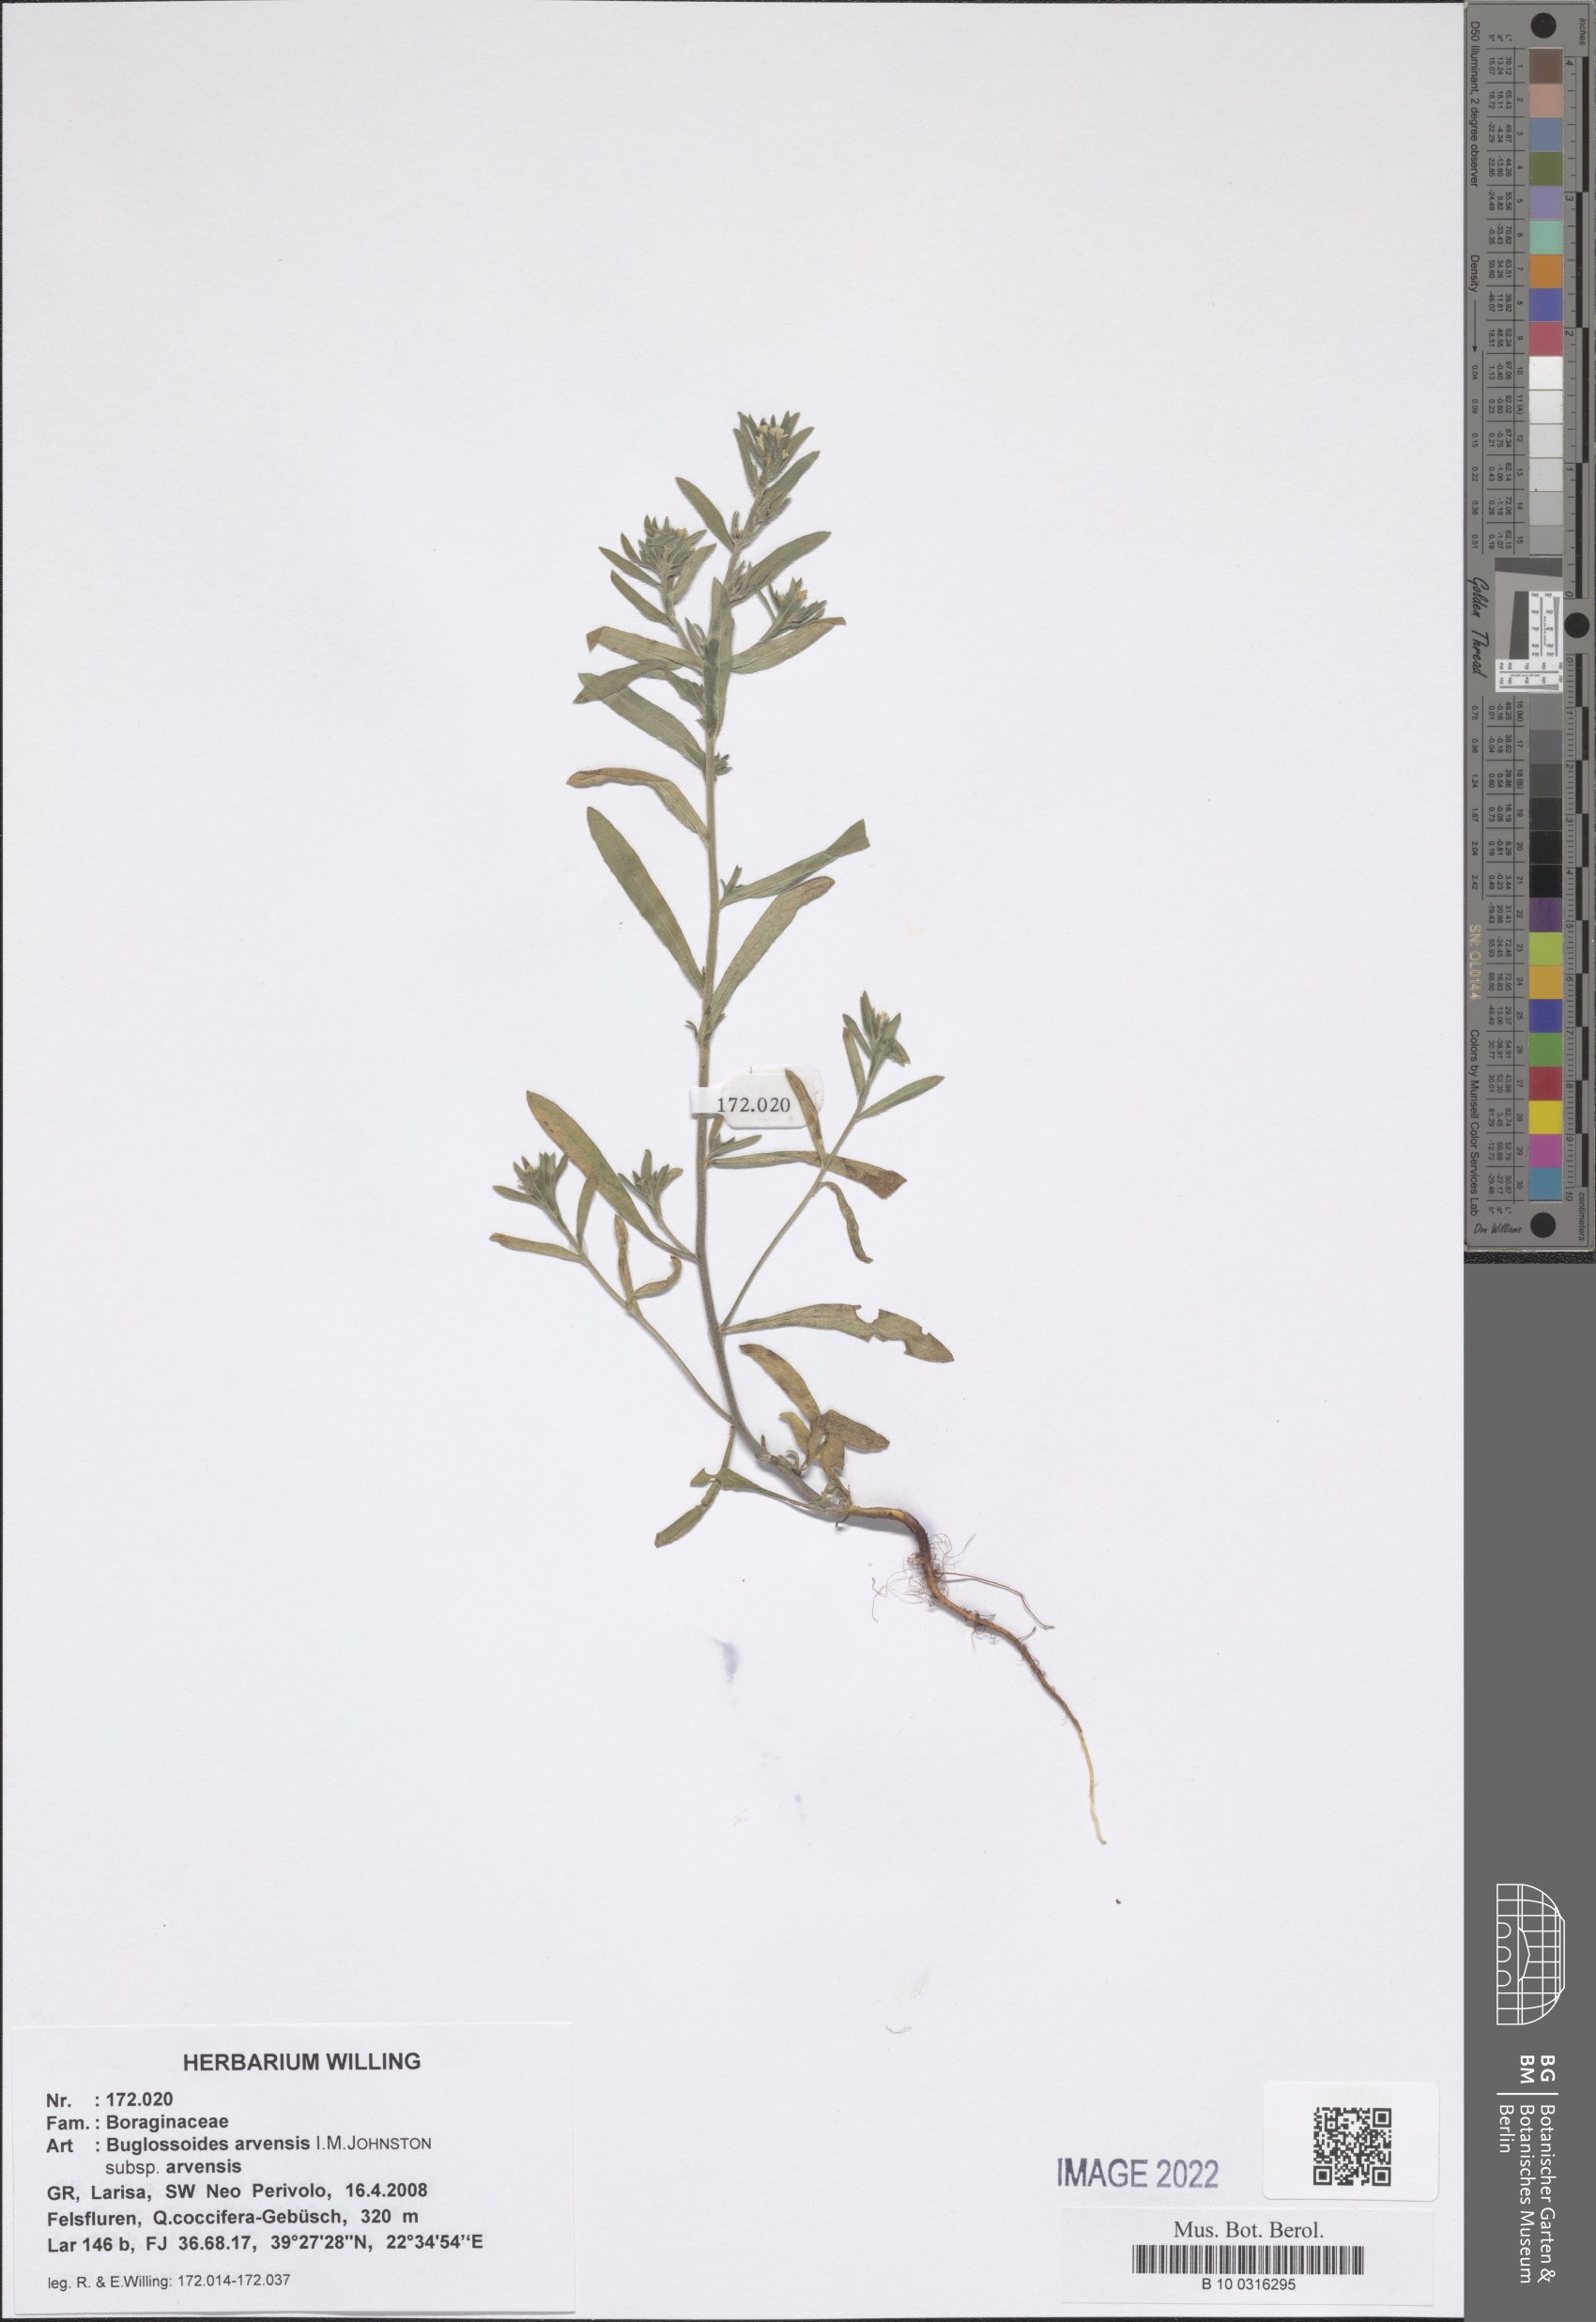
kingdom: Plantae
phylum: Tracheophyta
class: Magnoliopsida
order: Boraginales
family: Boraginaceae
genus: Buglossoides
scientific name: Buglossoides arvensis
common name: Corn gromwell
